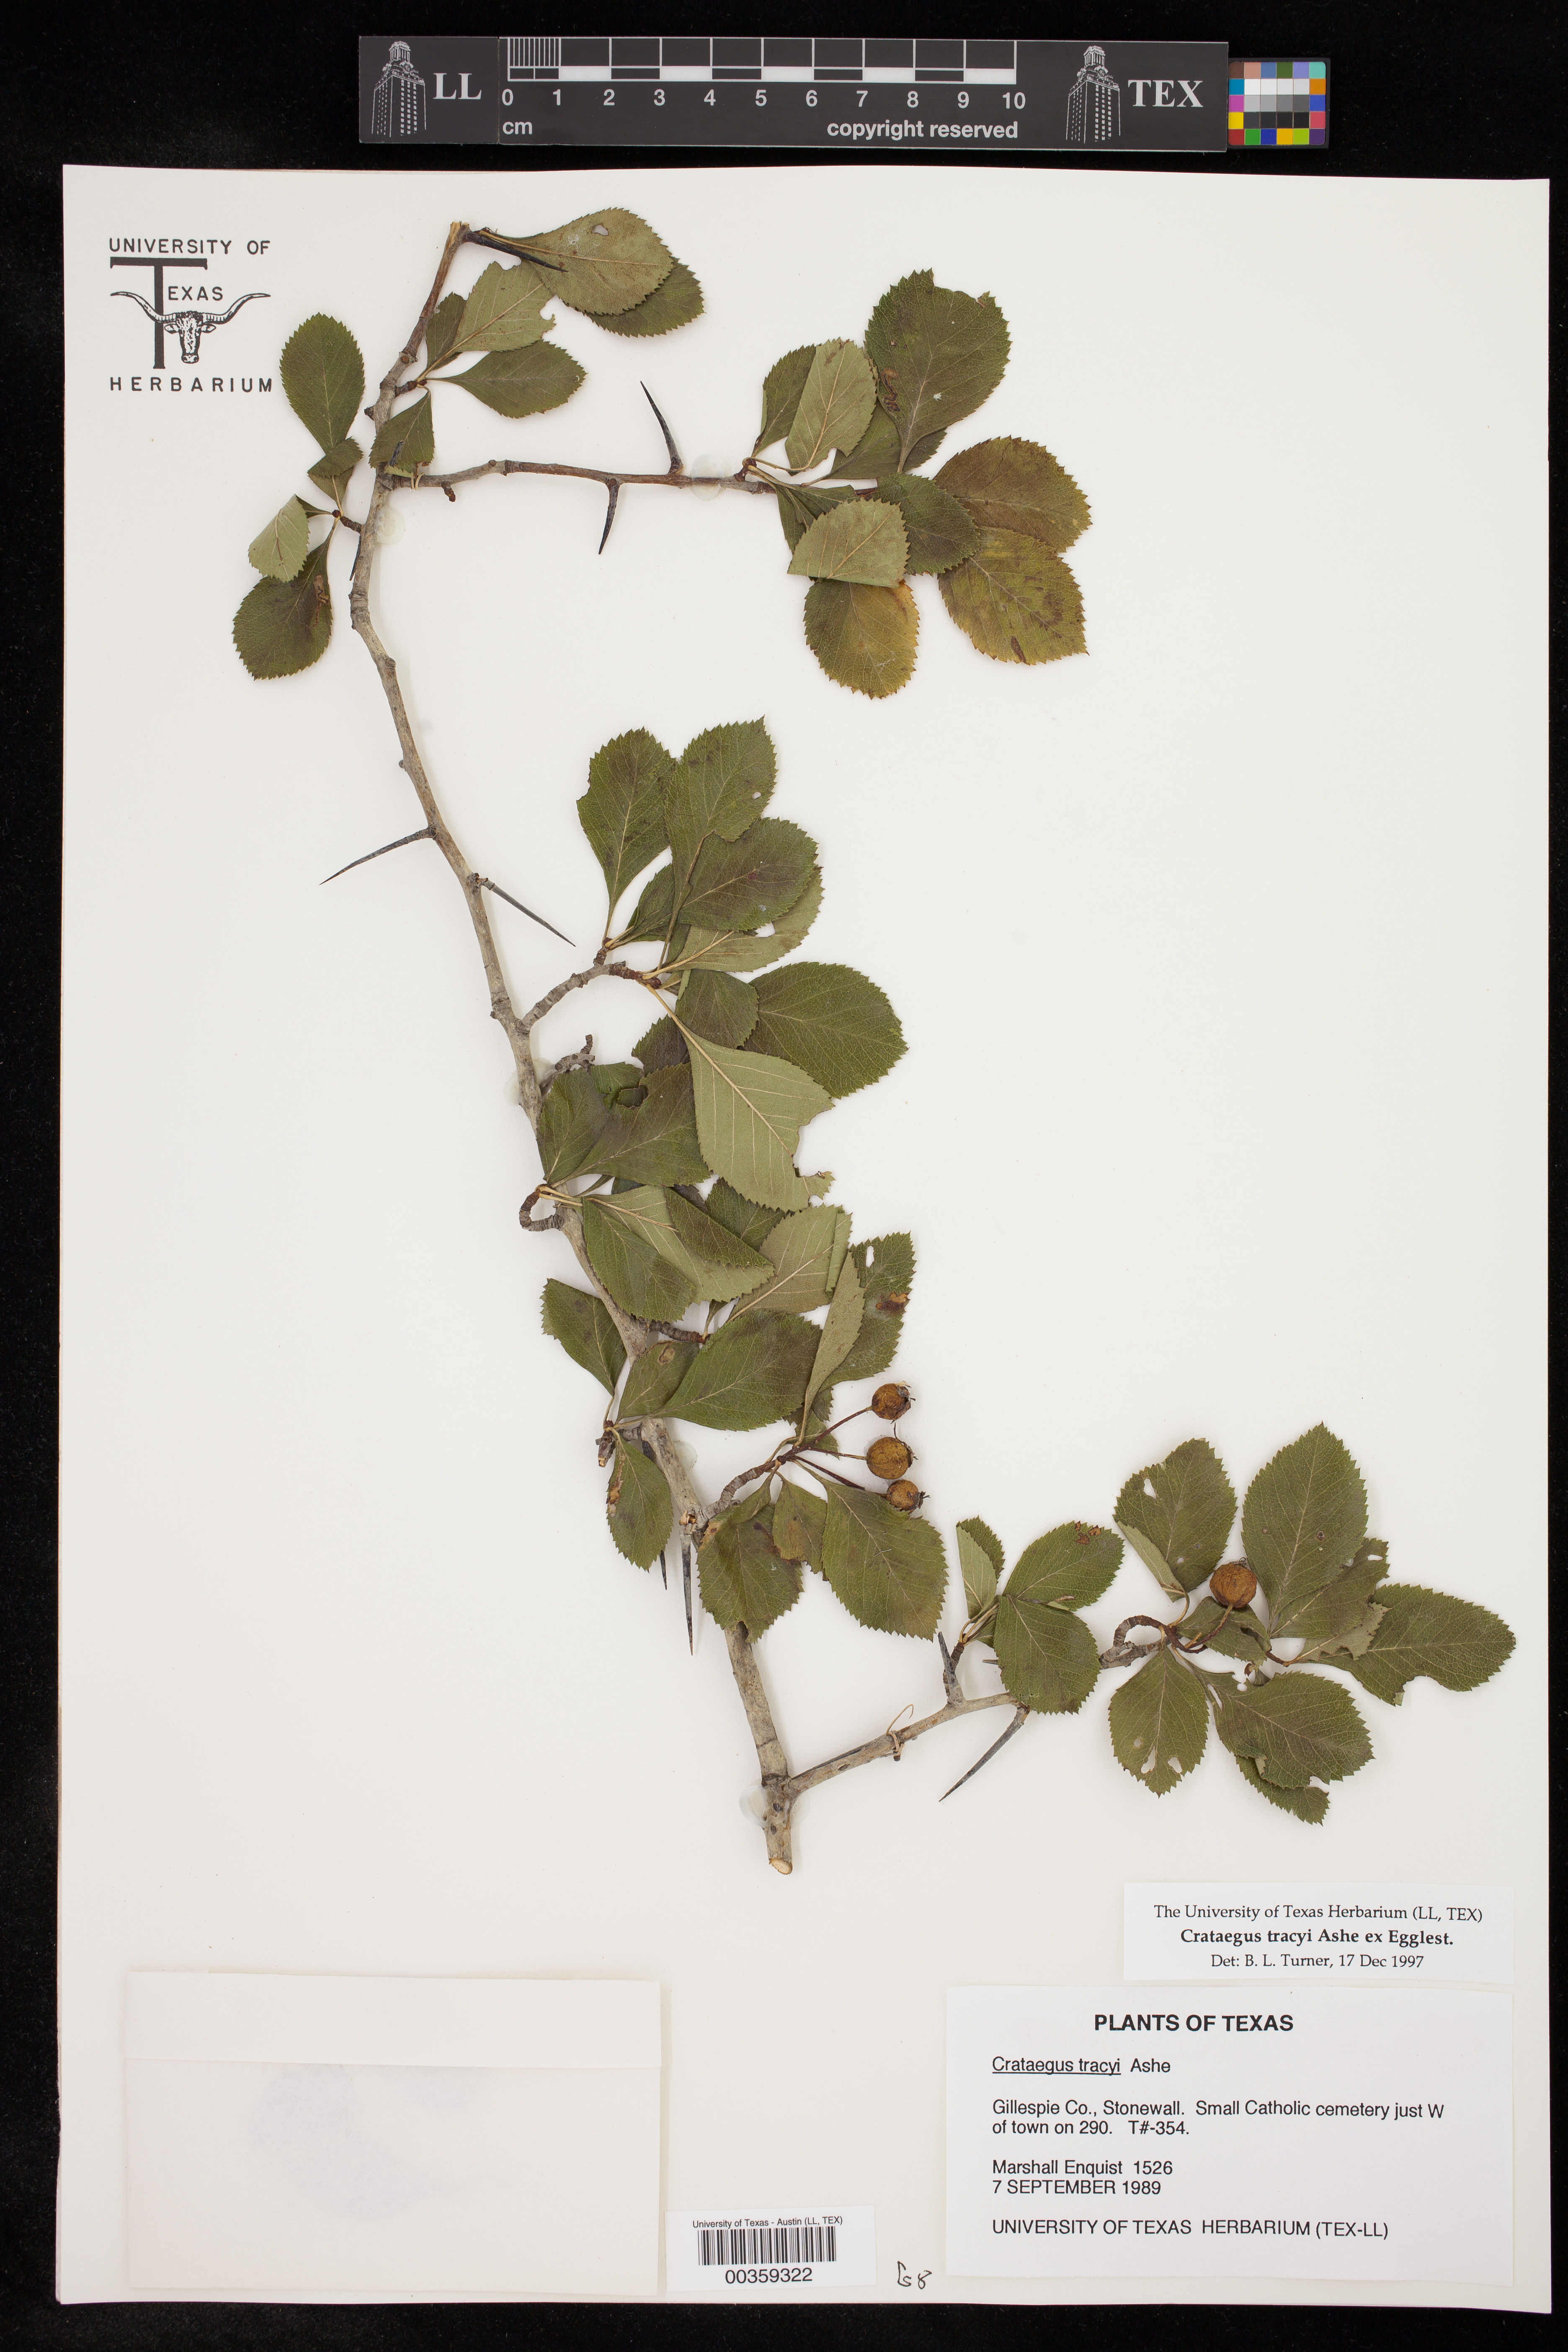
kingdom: Plantae
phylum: Tracheophyta
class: Magnoliopsida
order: Rosales
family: Rosaceae
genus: Crataegus
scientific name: Crataegus tracyi
